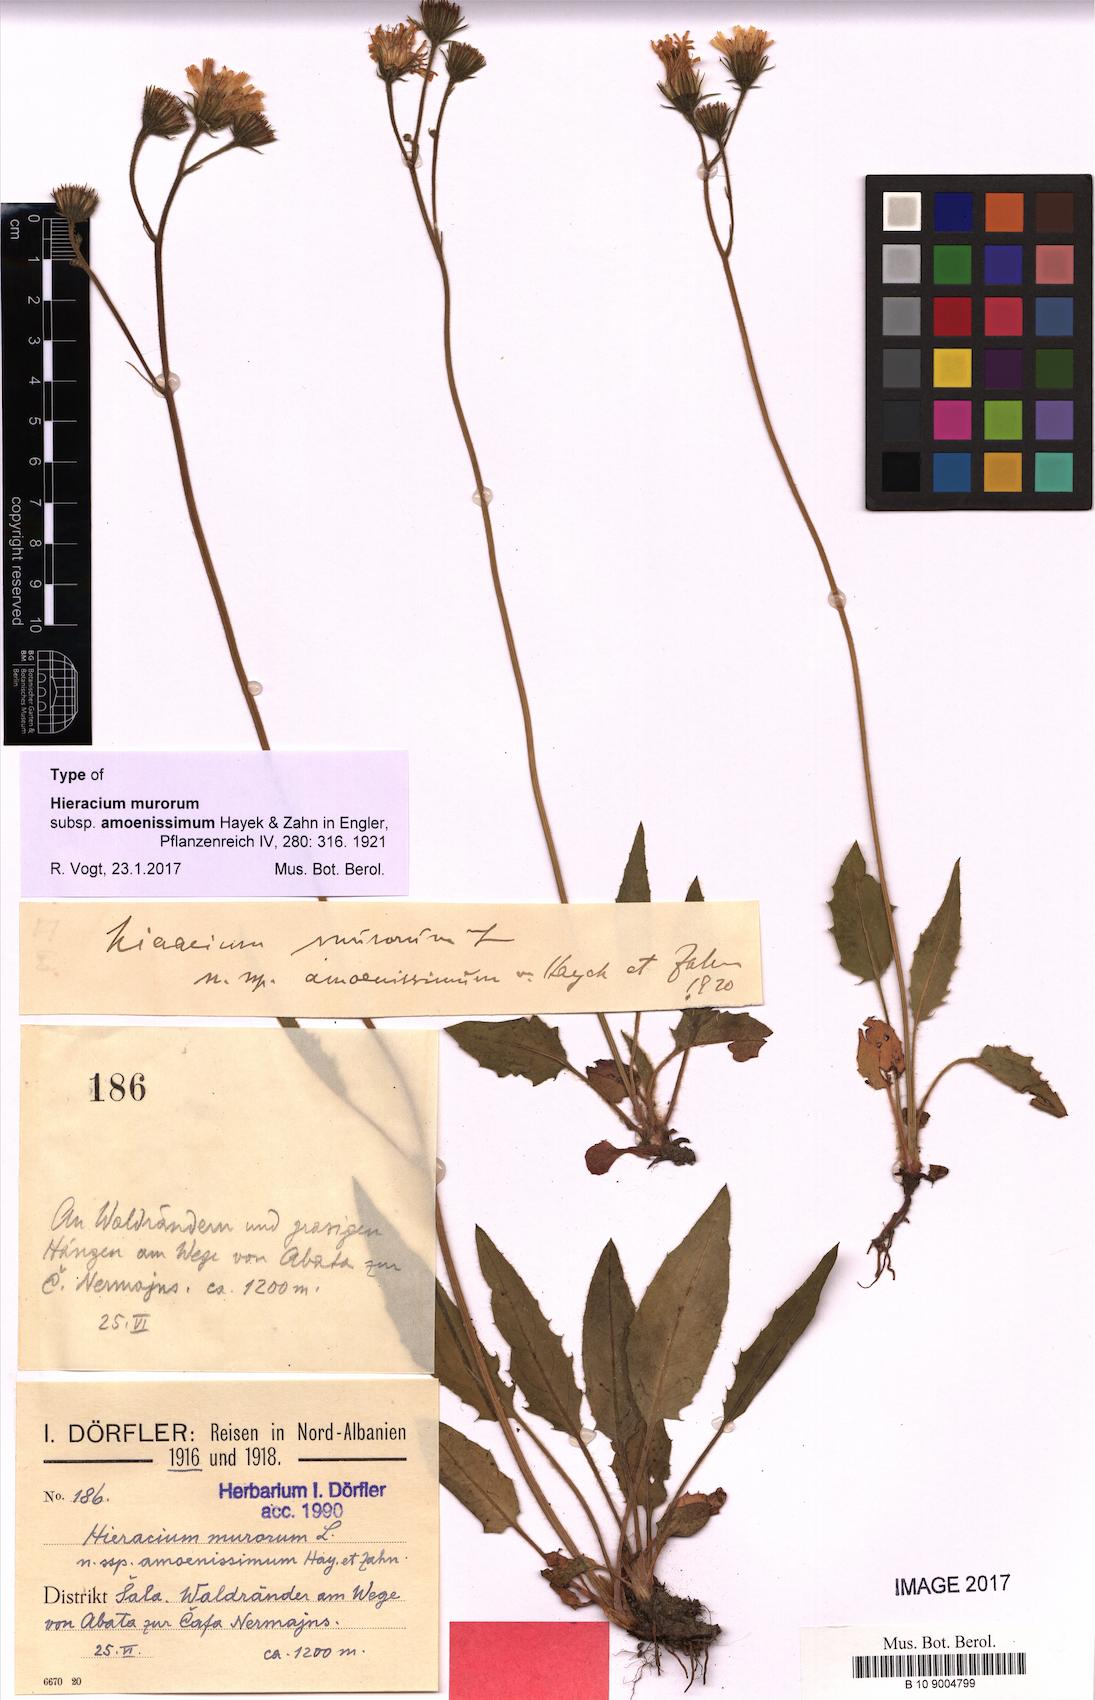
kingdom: Plantae
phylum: Tracheophyta
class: Magnoliopsida
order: Asterales
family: Asteraceae
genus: Hieracium
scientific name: Hieracium murorum
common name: Wall hawkweed
